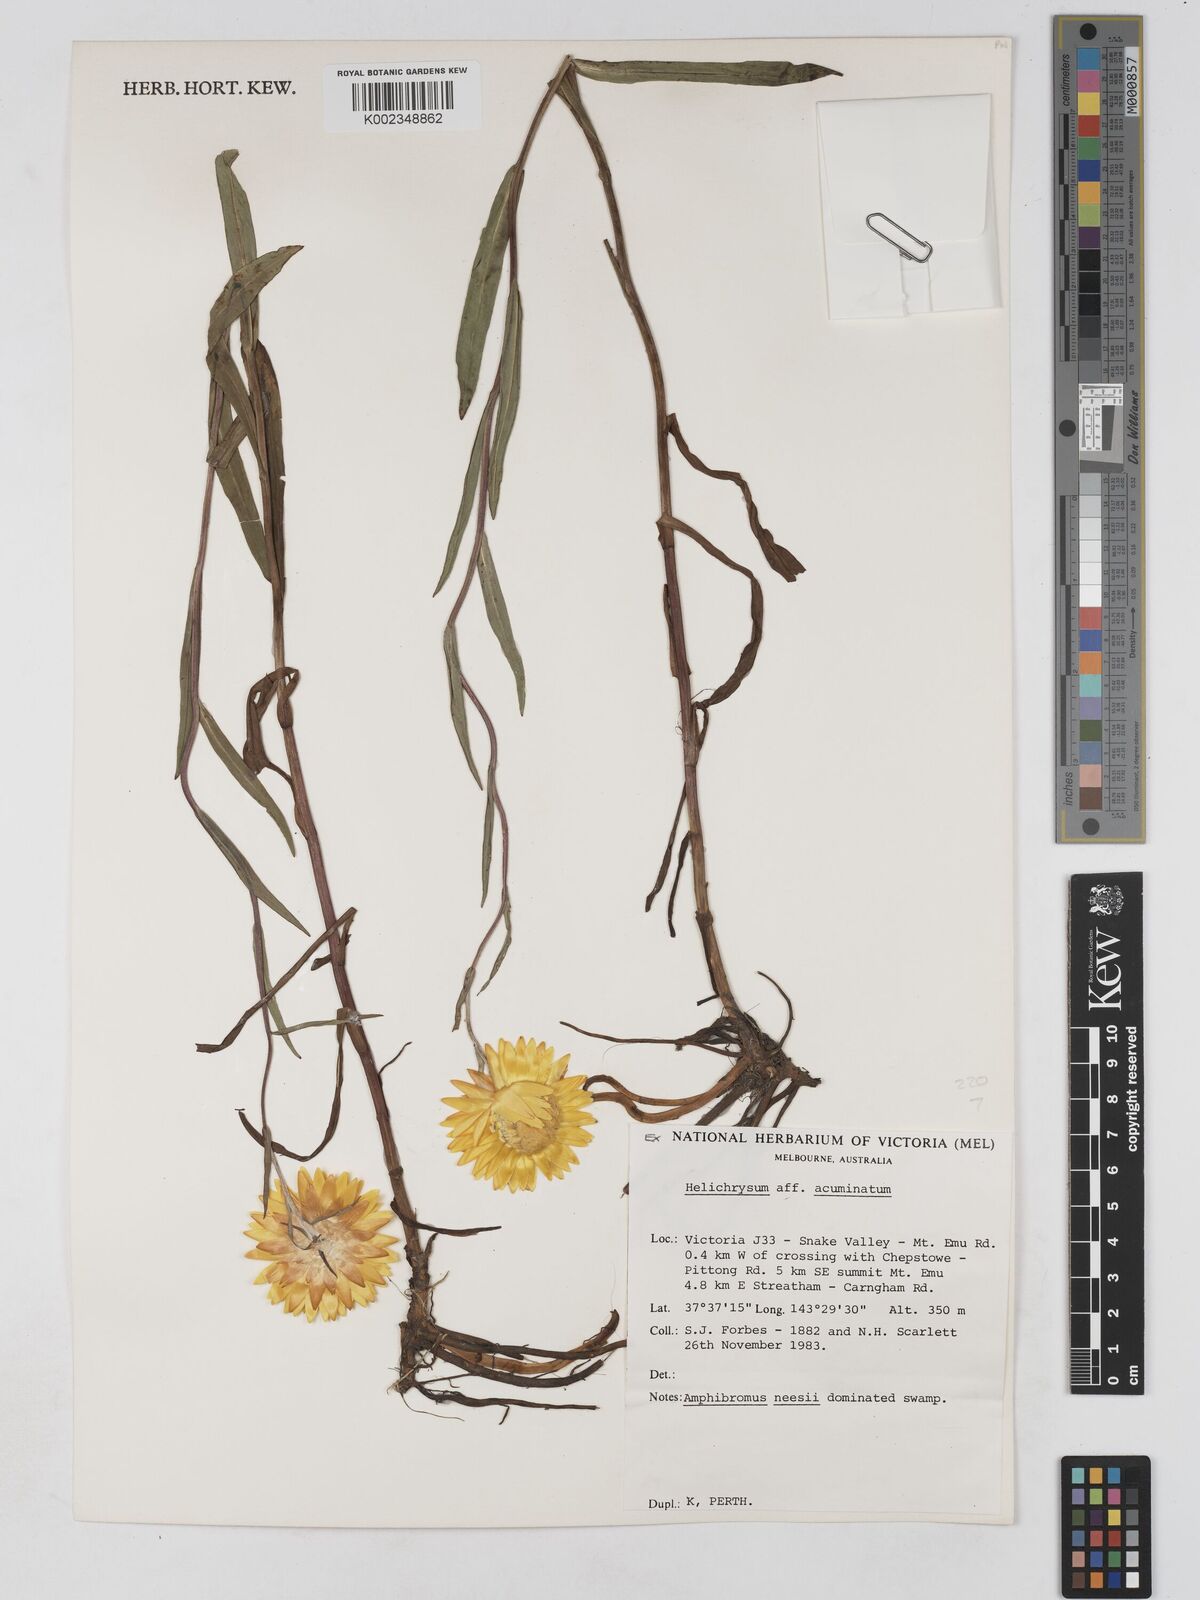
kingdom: Plantae
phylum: Tracheophyta
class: Magnoliopsida
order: Asterales
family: Asteraceae
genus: Xerochrysum
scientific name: Xerochrysum bracteatum
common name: Bracted strawflower
